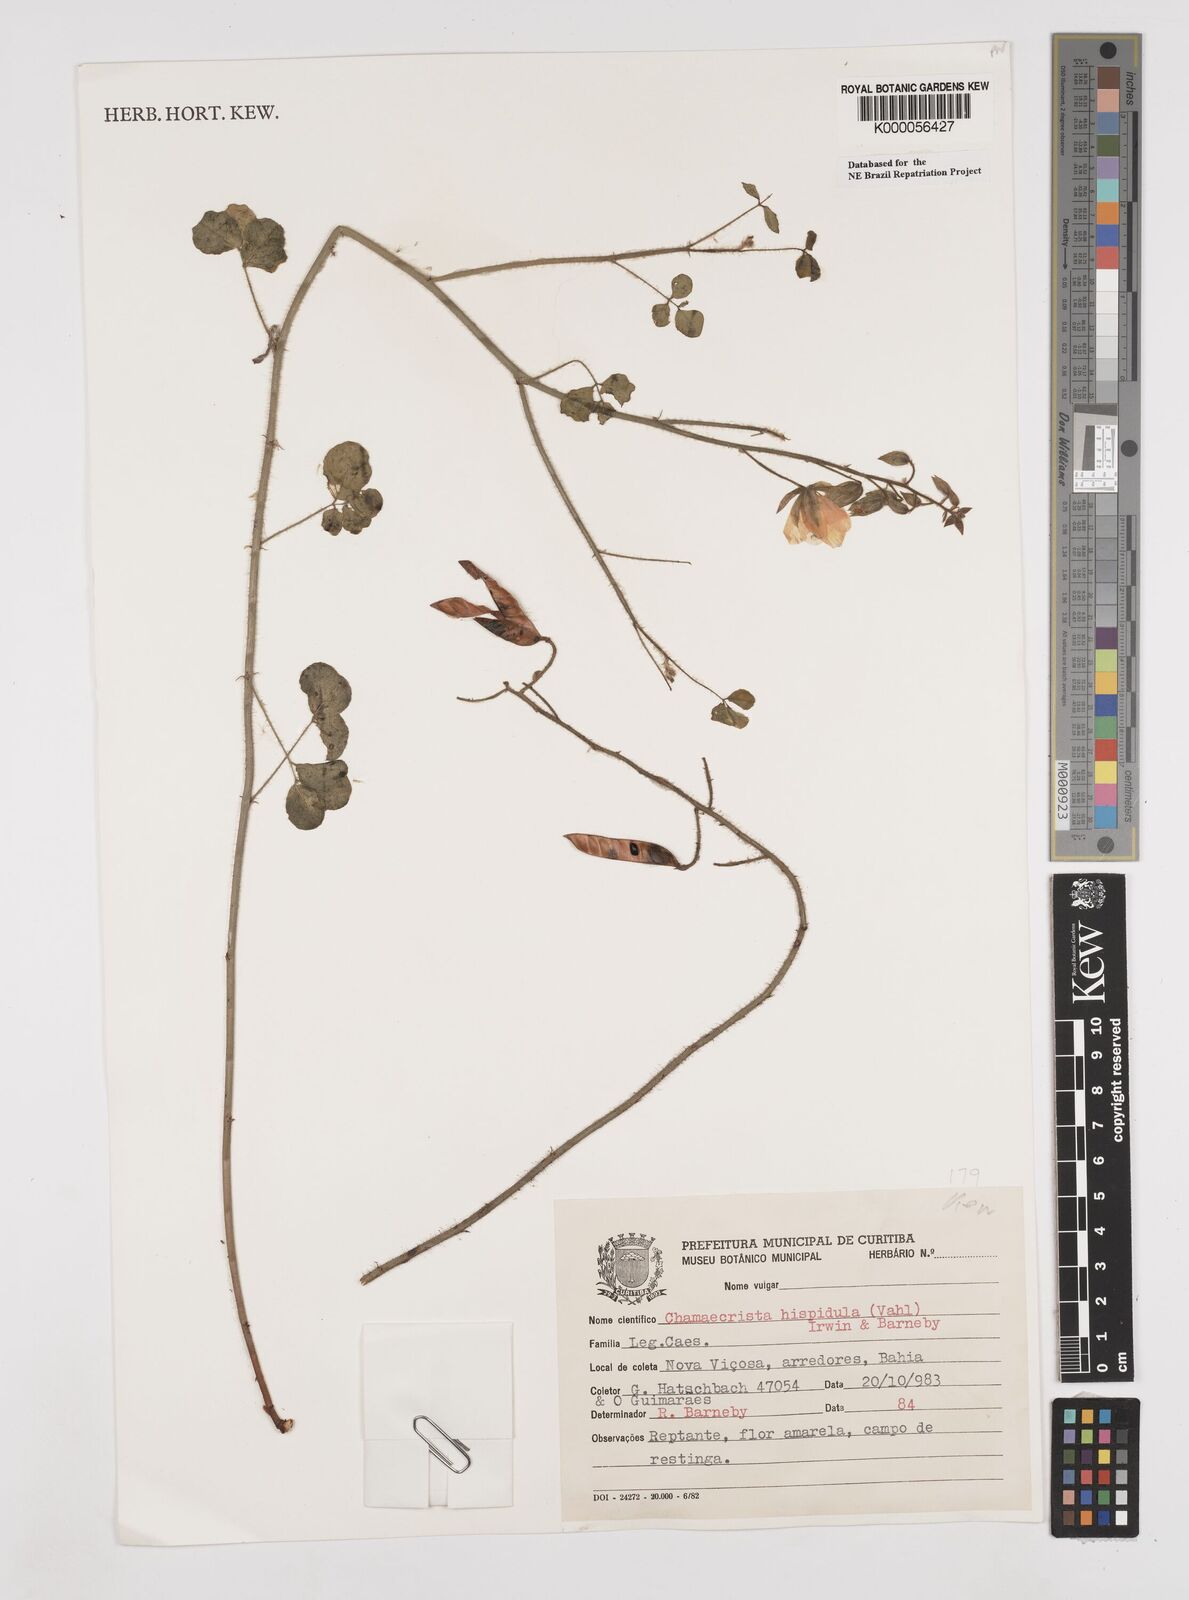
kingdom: Plantae
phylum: Tracheophyta
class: Magnoliopsida
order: Fabales
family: Fabaceae
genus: Chamaecrista
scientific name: Chamaecrista hispidula
